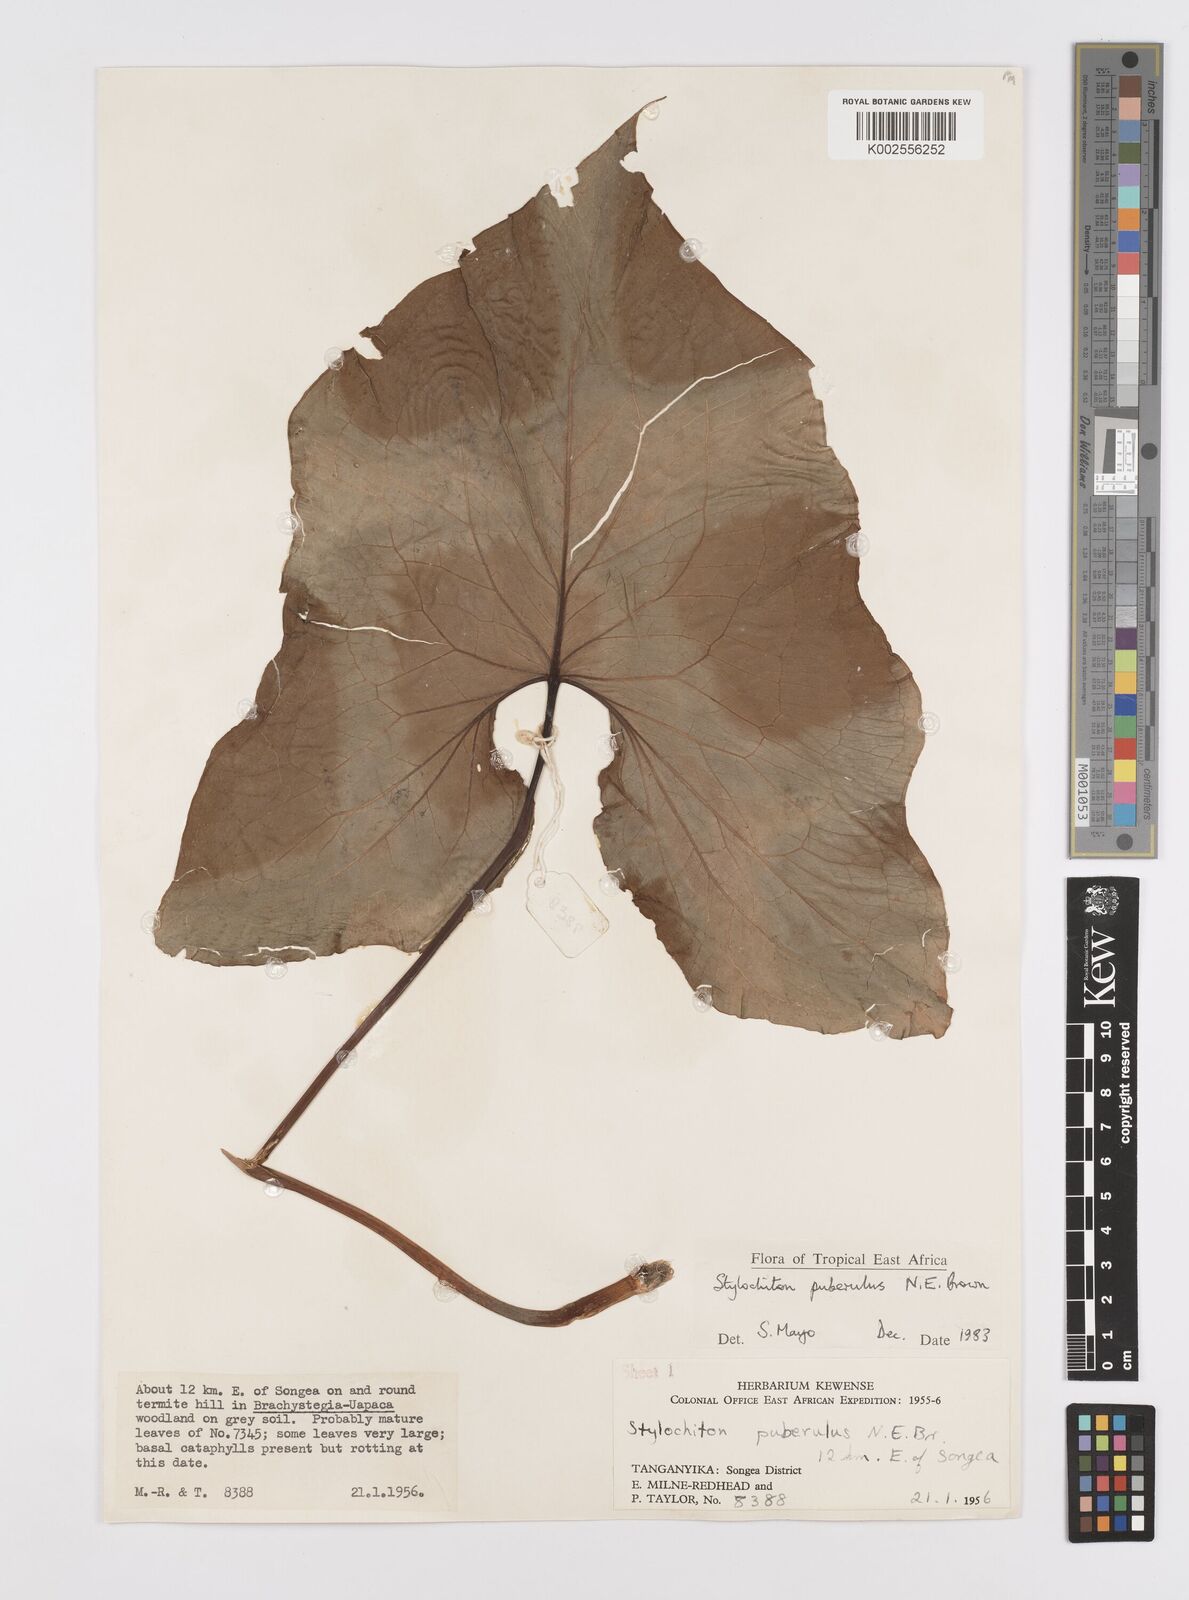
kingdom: Plantae
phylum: Tracheophyta
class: Liliopsida
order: Alismatales
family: Araceae
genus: Stylochaeton
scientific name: Stylochaeton puberulum
